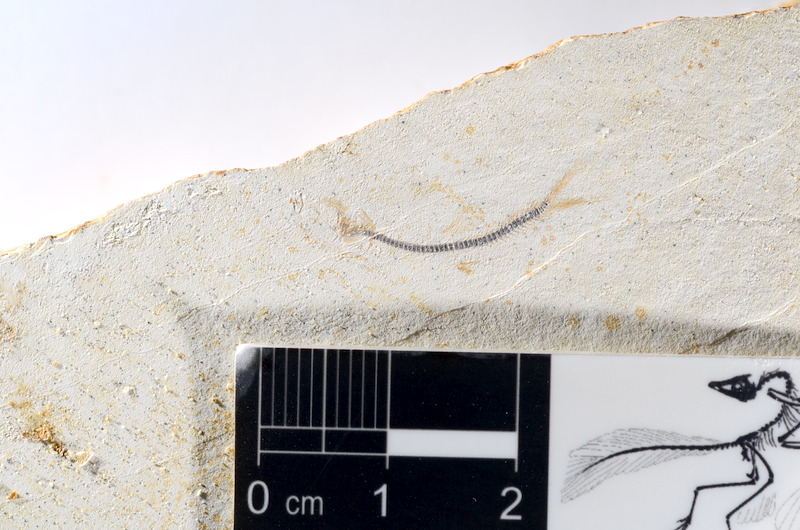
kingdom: Animalia
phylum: Chordata
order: Salmoniformes
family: Orthogonikleithridae
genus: Orthogonikleithrus
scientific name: Orthogonikleithrus hoelli
